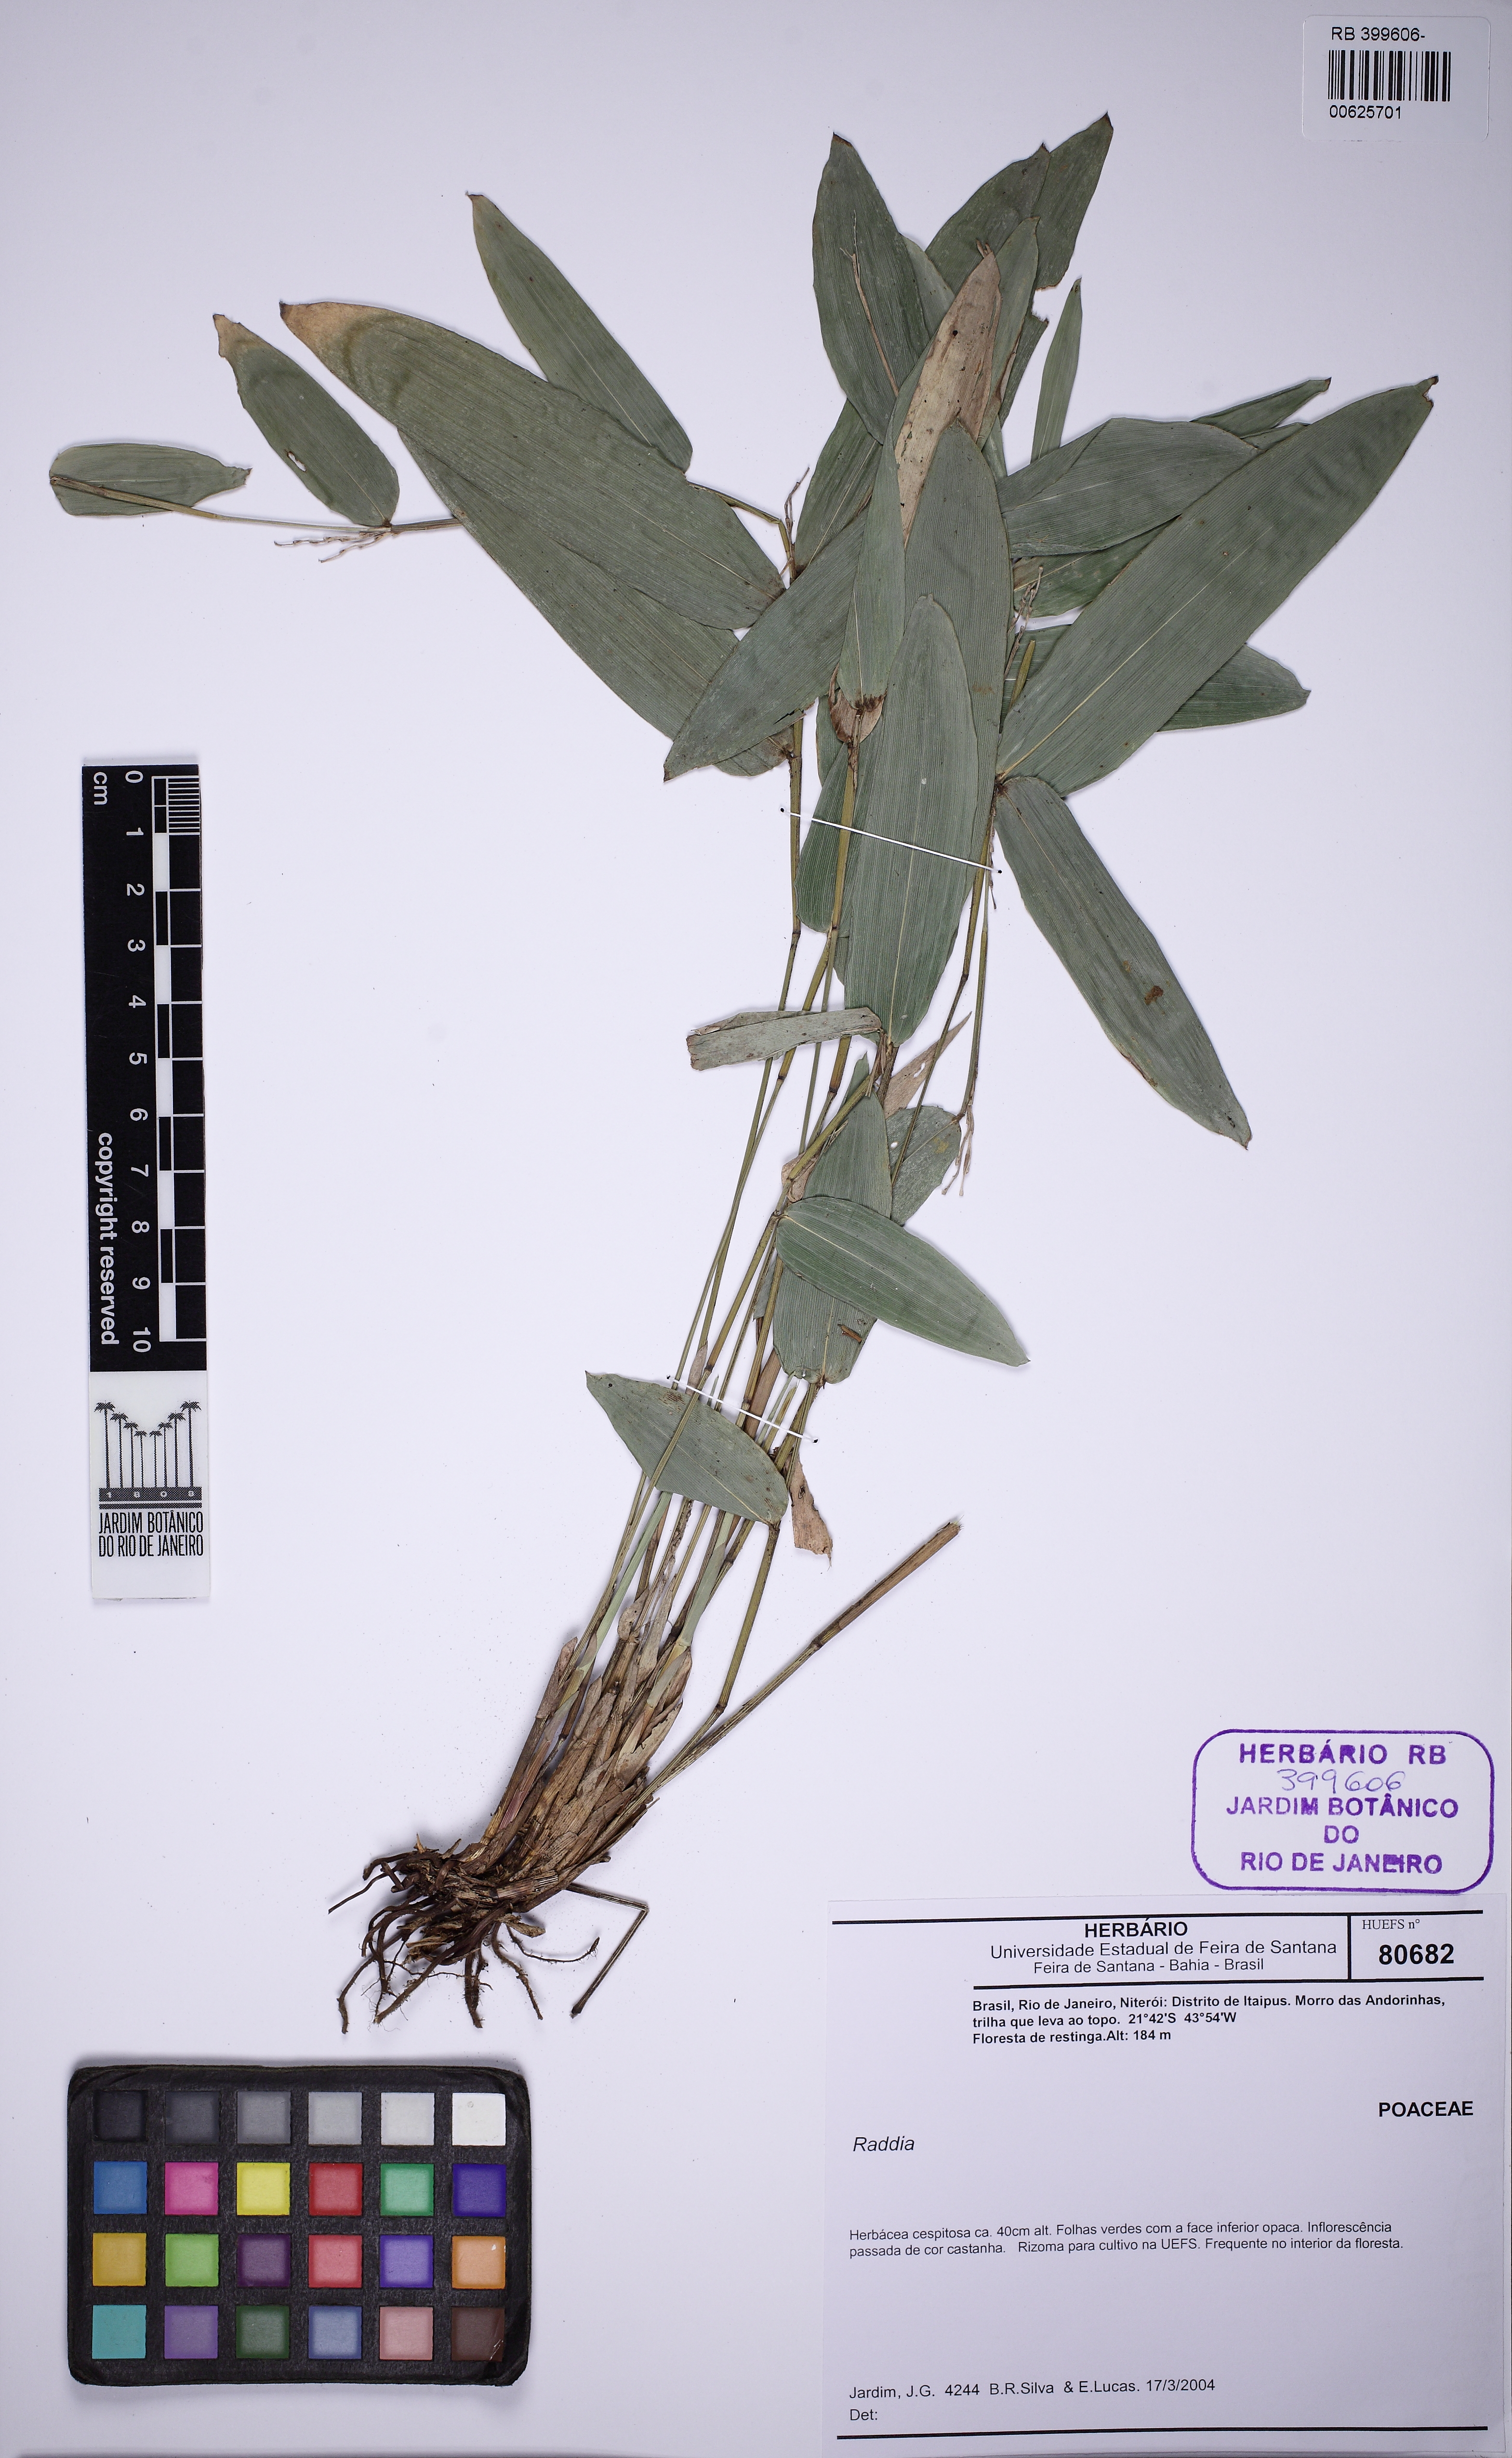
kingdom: Plantae
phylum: Tracheophyta
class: Liliopsida
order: Poales
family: Poaceae
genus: Raddia
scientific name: Raddia
